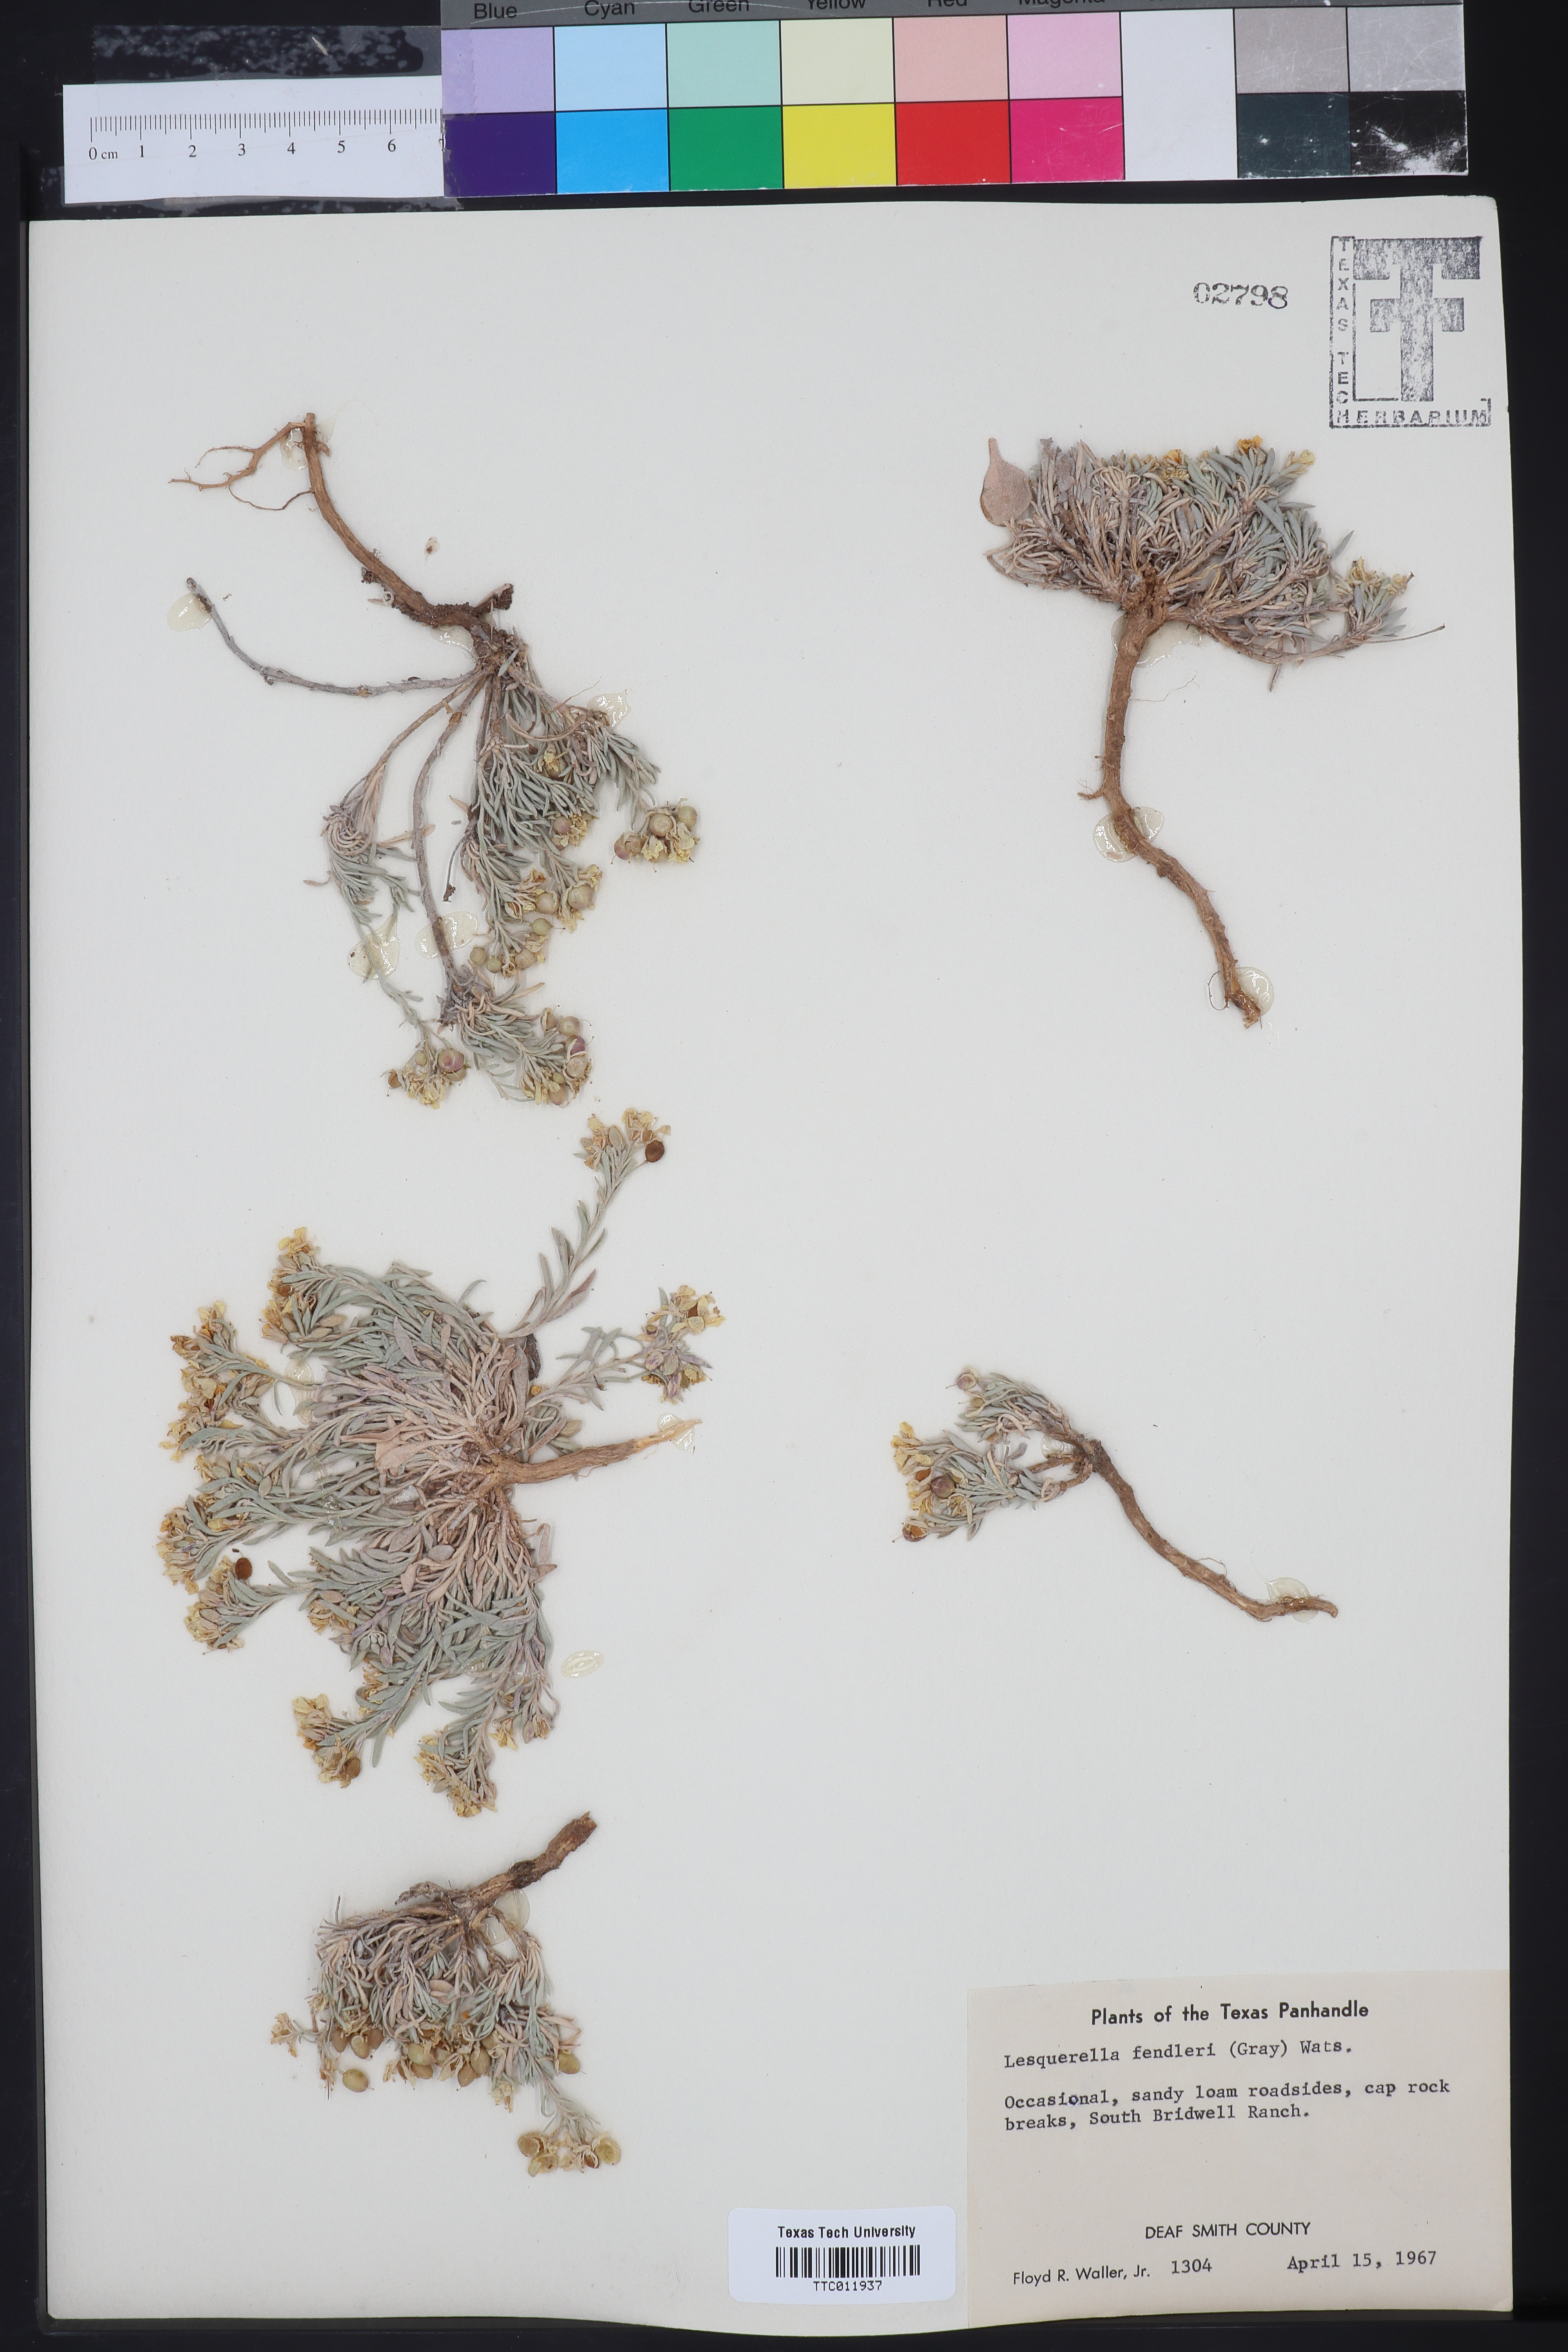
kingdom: Plantae
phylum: Tracheophyta
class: Magnoliopsida
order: Brassicales
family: Brassicaceae
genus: Physaria
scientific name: Physaria fendleri
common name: Fendler's bladderpod
